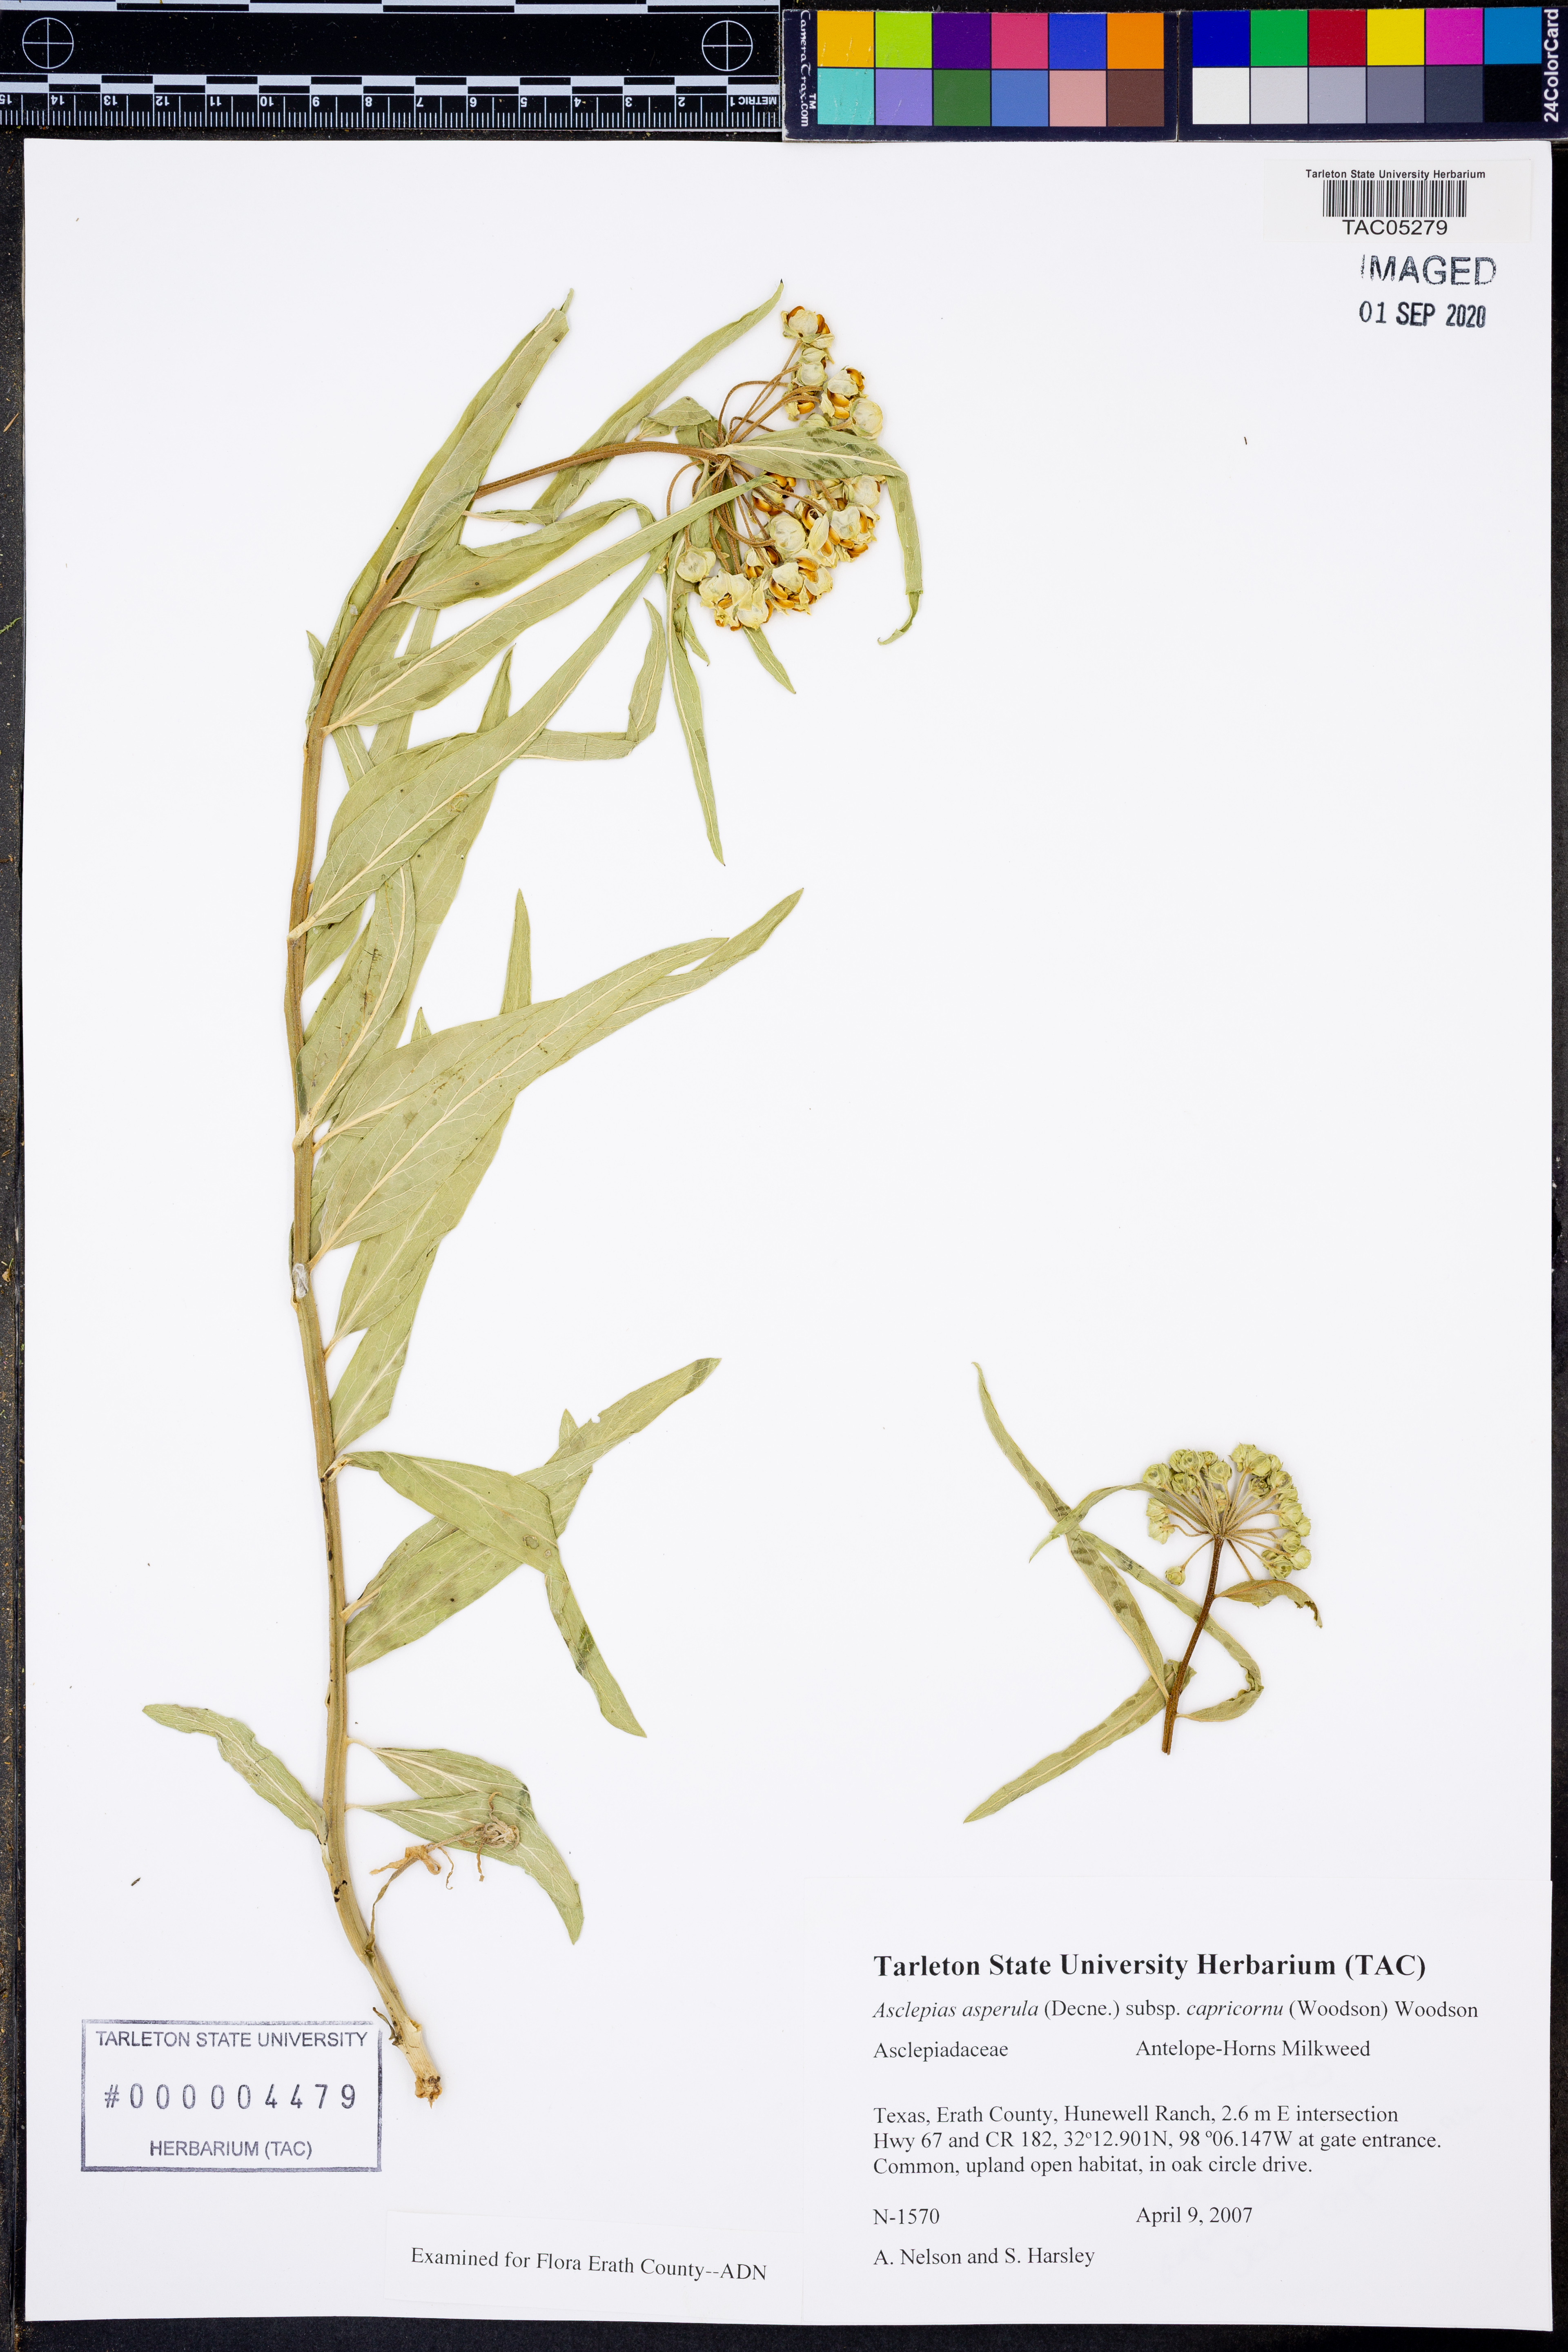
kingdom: Plantae
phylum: Tracheophyta
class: Magnoliopsida
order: Gentianales
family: Apocynaceae
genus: Asclepias
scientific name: Asclepias asperula
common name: Antelope horns
